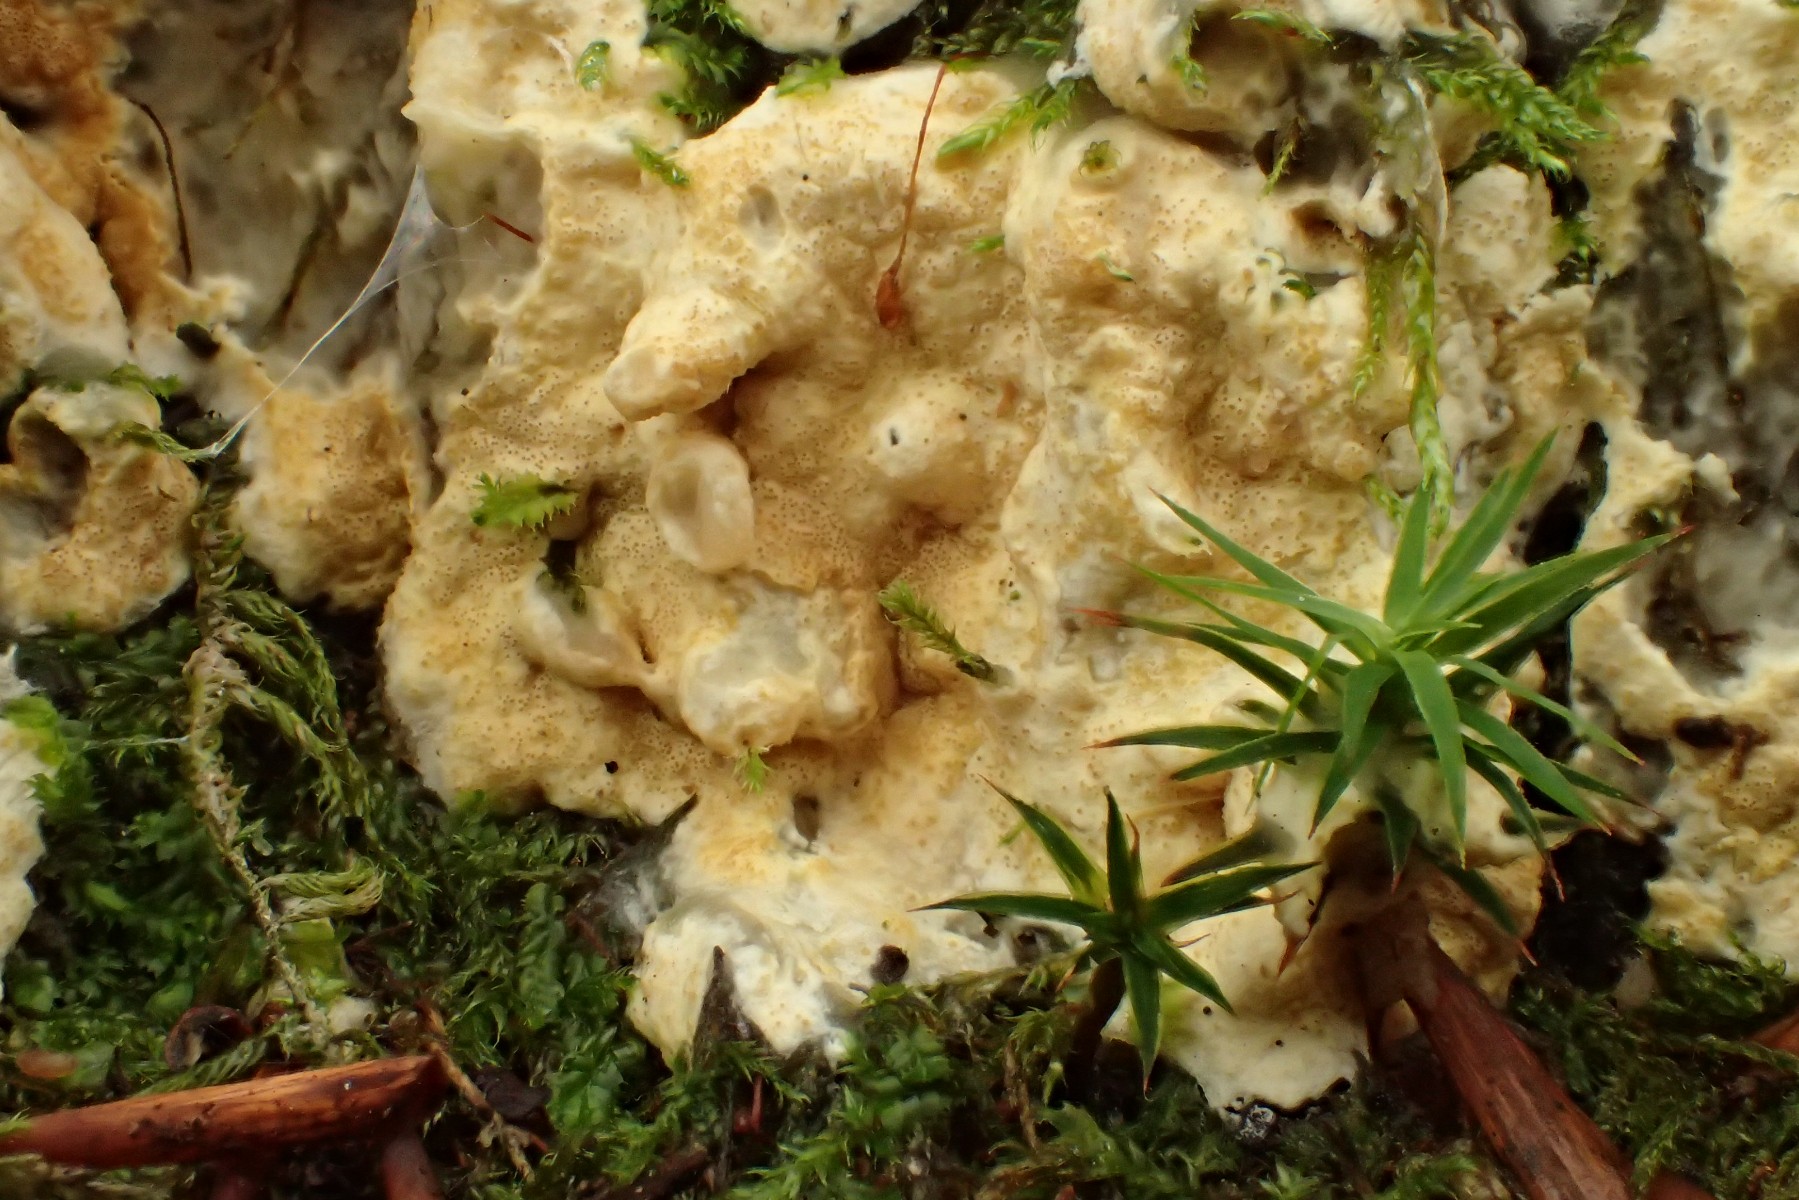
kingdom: Fungi
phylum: Ascomycota
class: Sordariomycetes
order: Hypocreales
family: Hypocreaceae
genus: Trichoderma
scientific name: Trichoderma citrinum
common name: udbredt kødkerne
